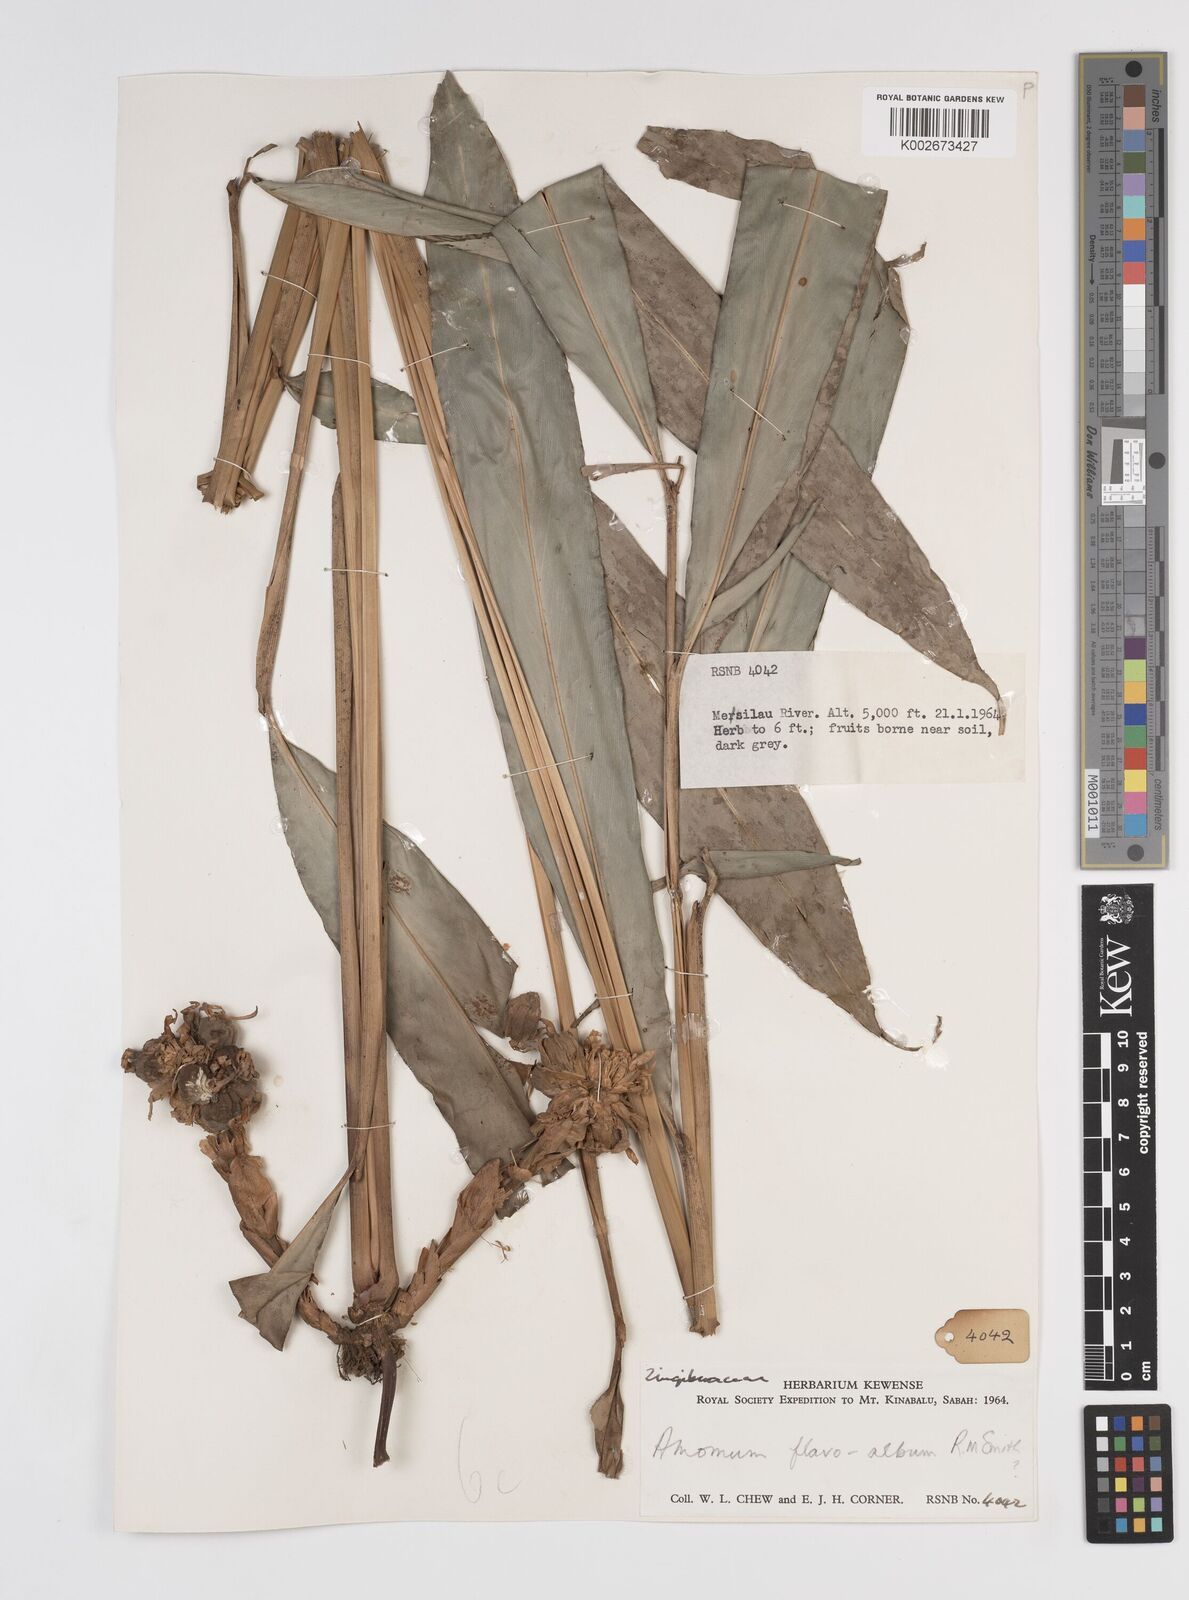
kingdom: Plantae
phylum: Tracheophyta
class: Liliopsida
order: Zingiberales
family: Zingiberaceae
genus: Sundamomum
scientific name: Sundamomum flavoalbum
